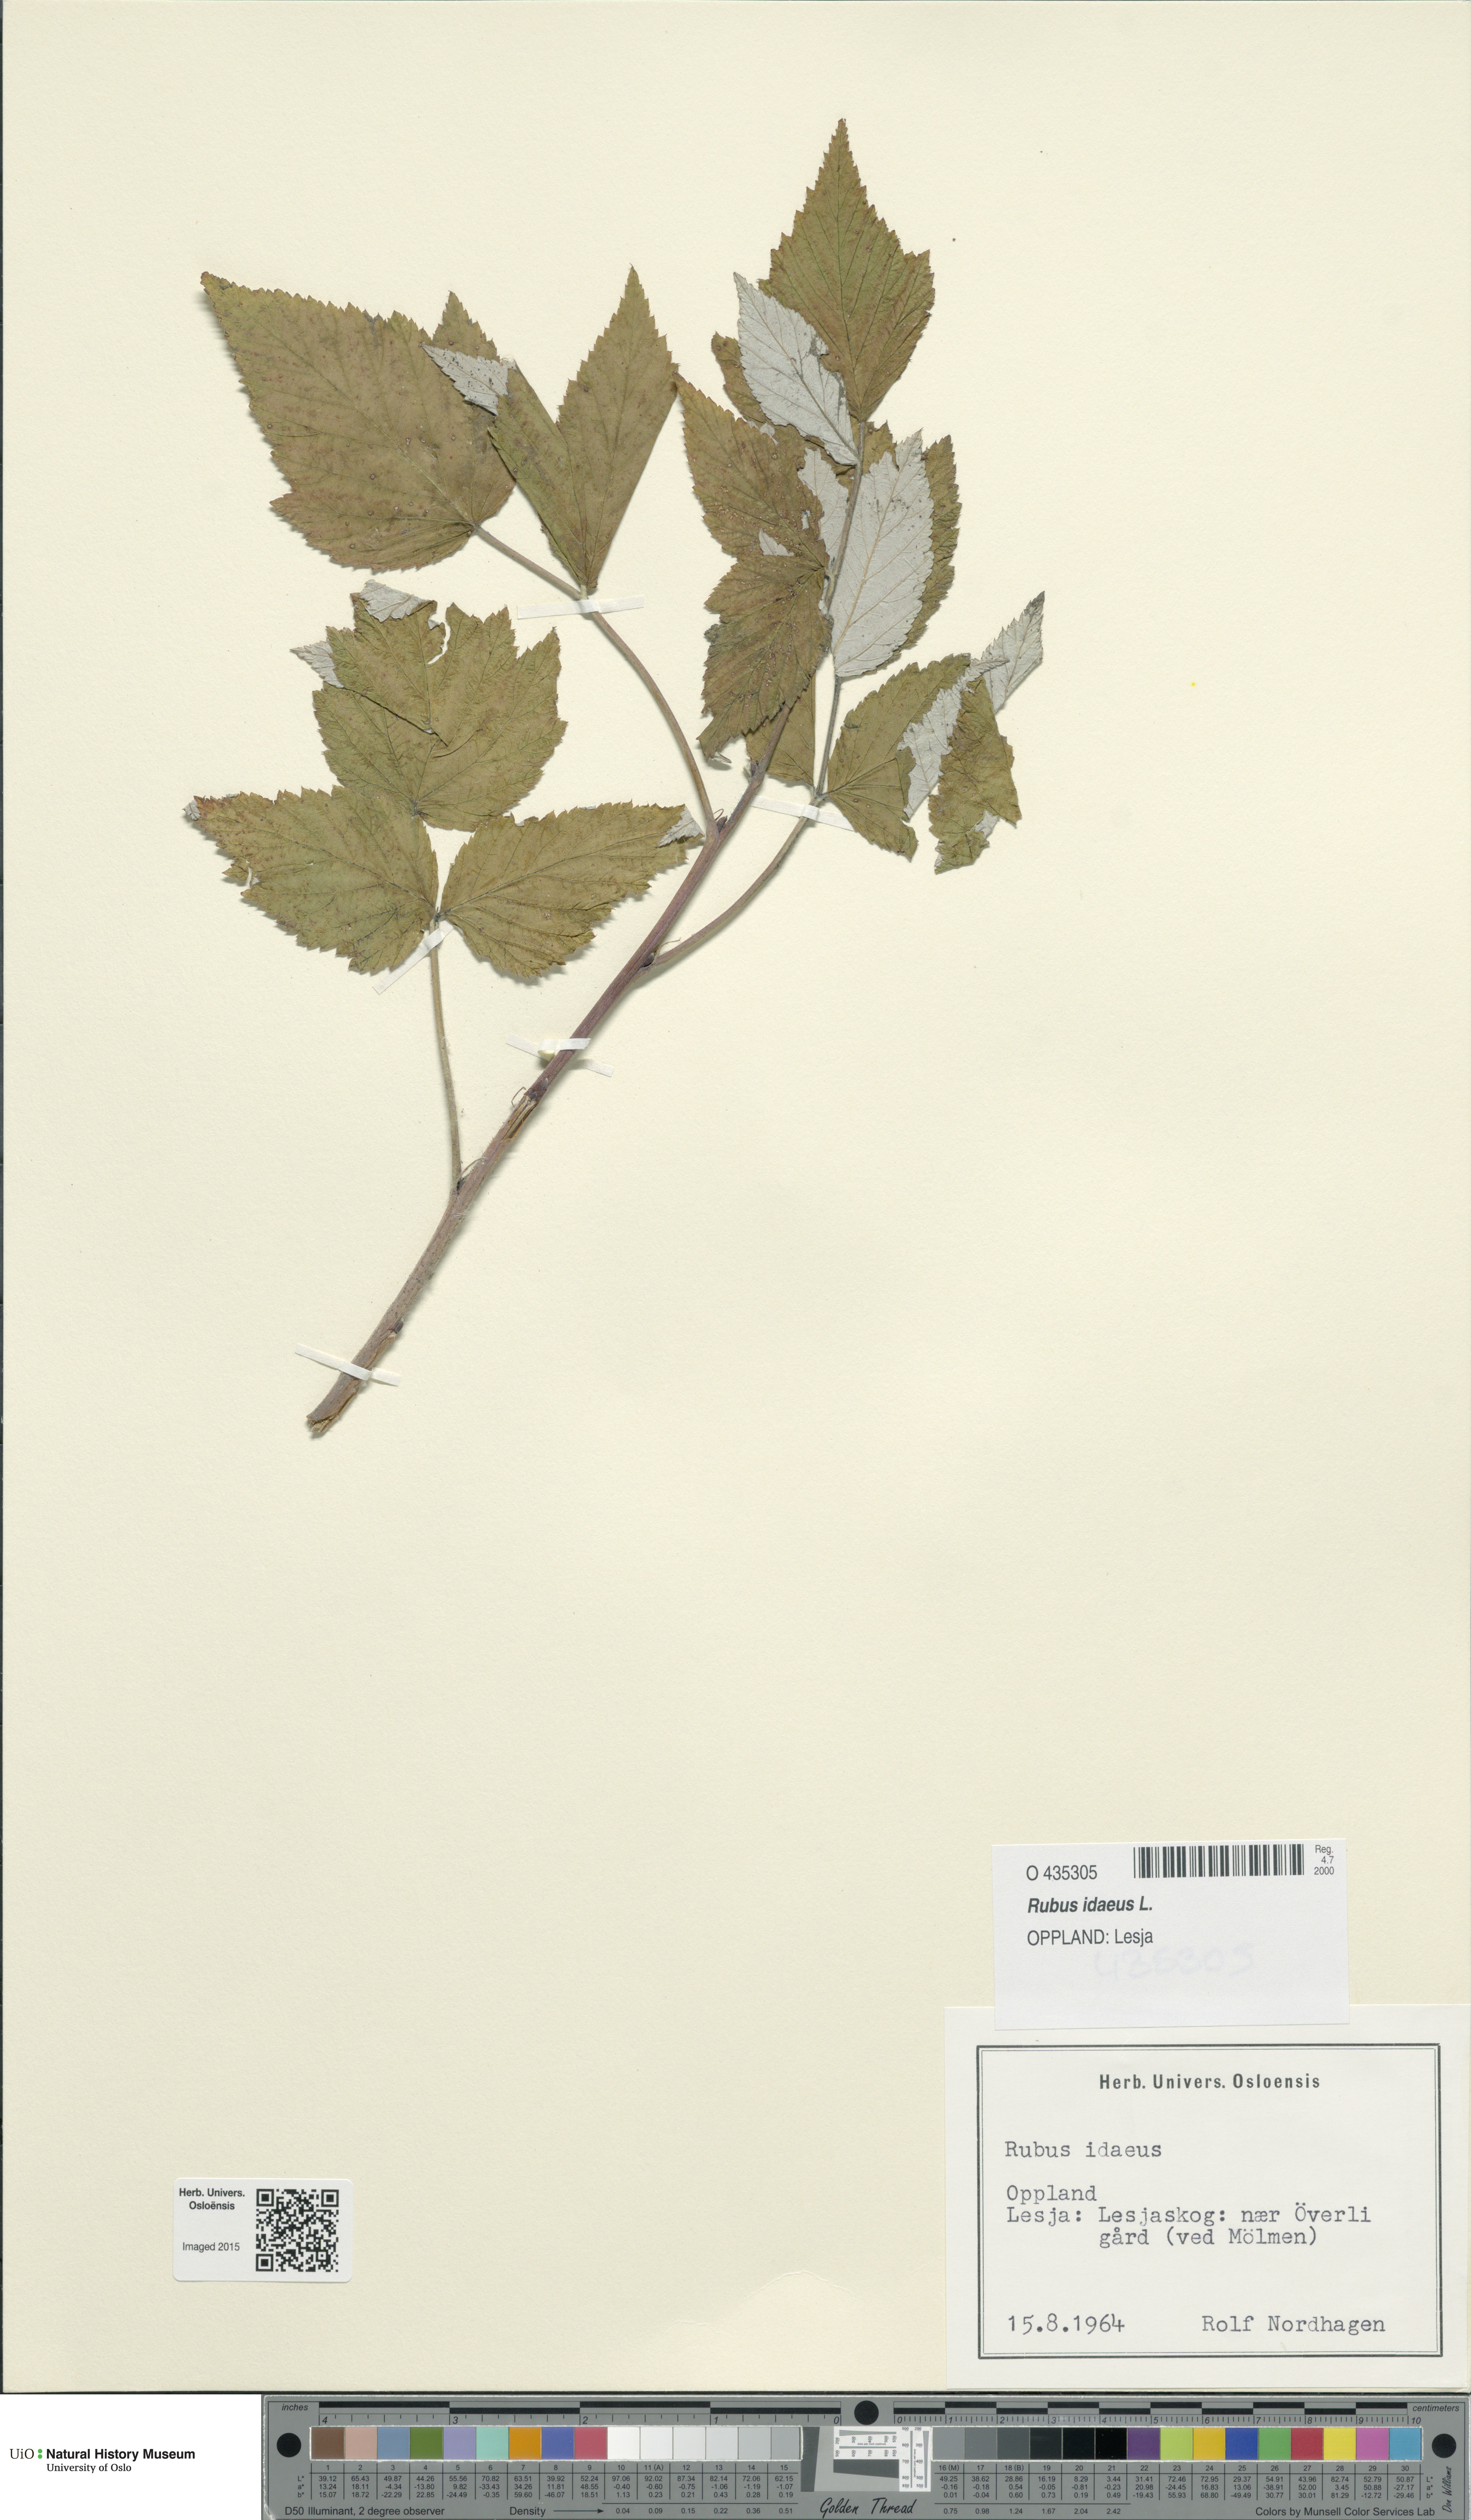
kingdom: Plantae
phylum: Tracheophyta
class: Magnoliopsida
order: Rosales
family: Rosaceae
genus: Rubus
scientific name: Rubus idaeus
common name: Raspberry
